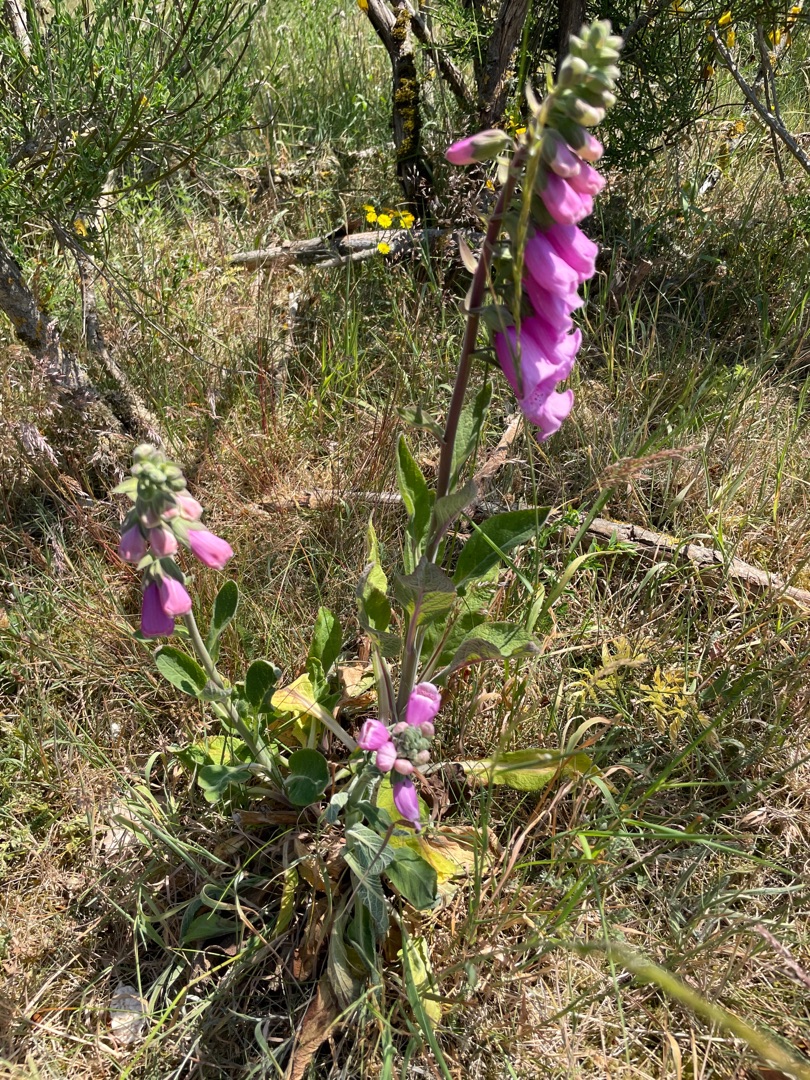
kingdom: Plantae
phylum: Tracheophyta
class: Magnoliopsida
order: Lamiales
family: Plantaginaceae
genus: Digitalis
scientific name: Digitalis purpurea
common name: Almindelig fingerbøl
